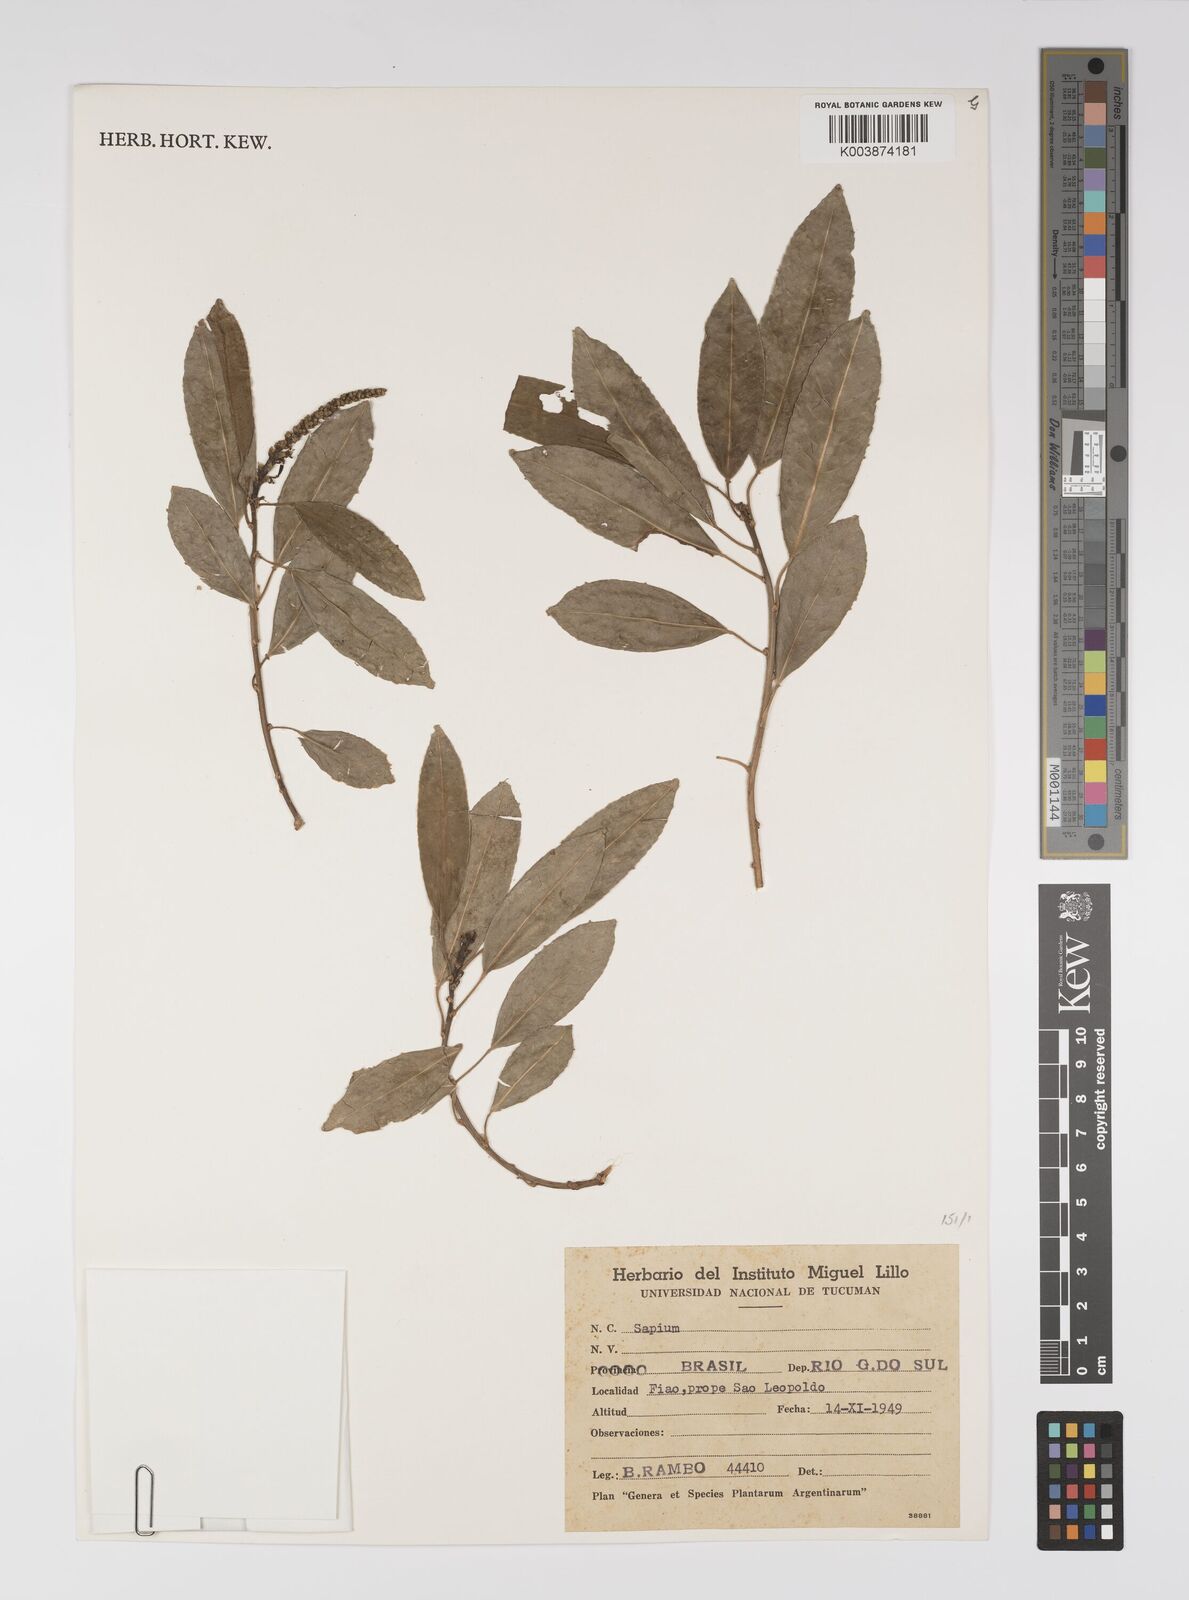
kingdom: Plantae
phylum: Tracheophyta
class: Magnoliopsida
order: Malpighiales
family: Euphorbiaceae
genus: Sapium
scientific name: Sapium
